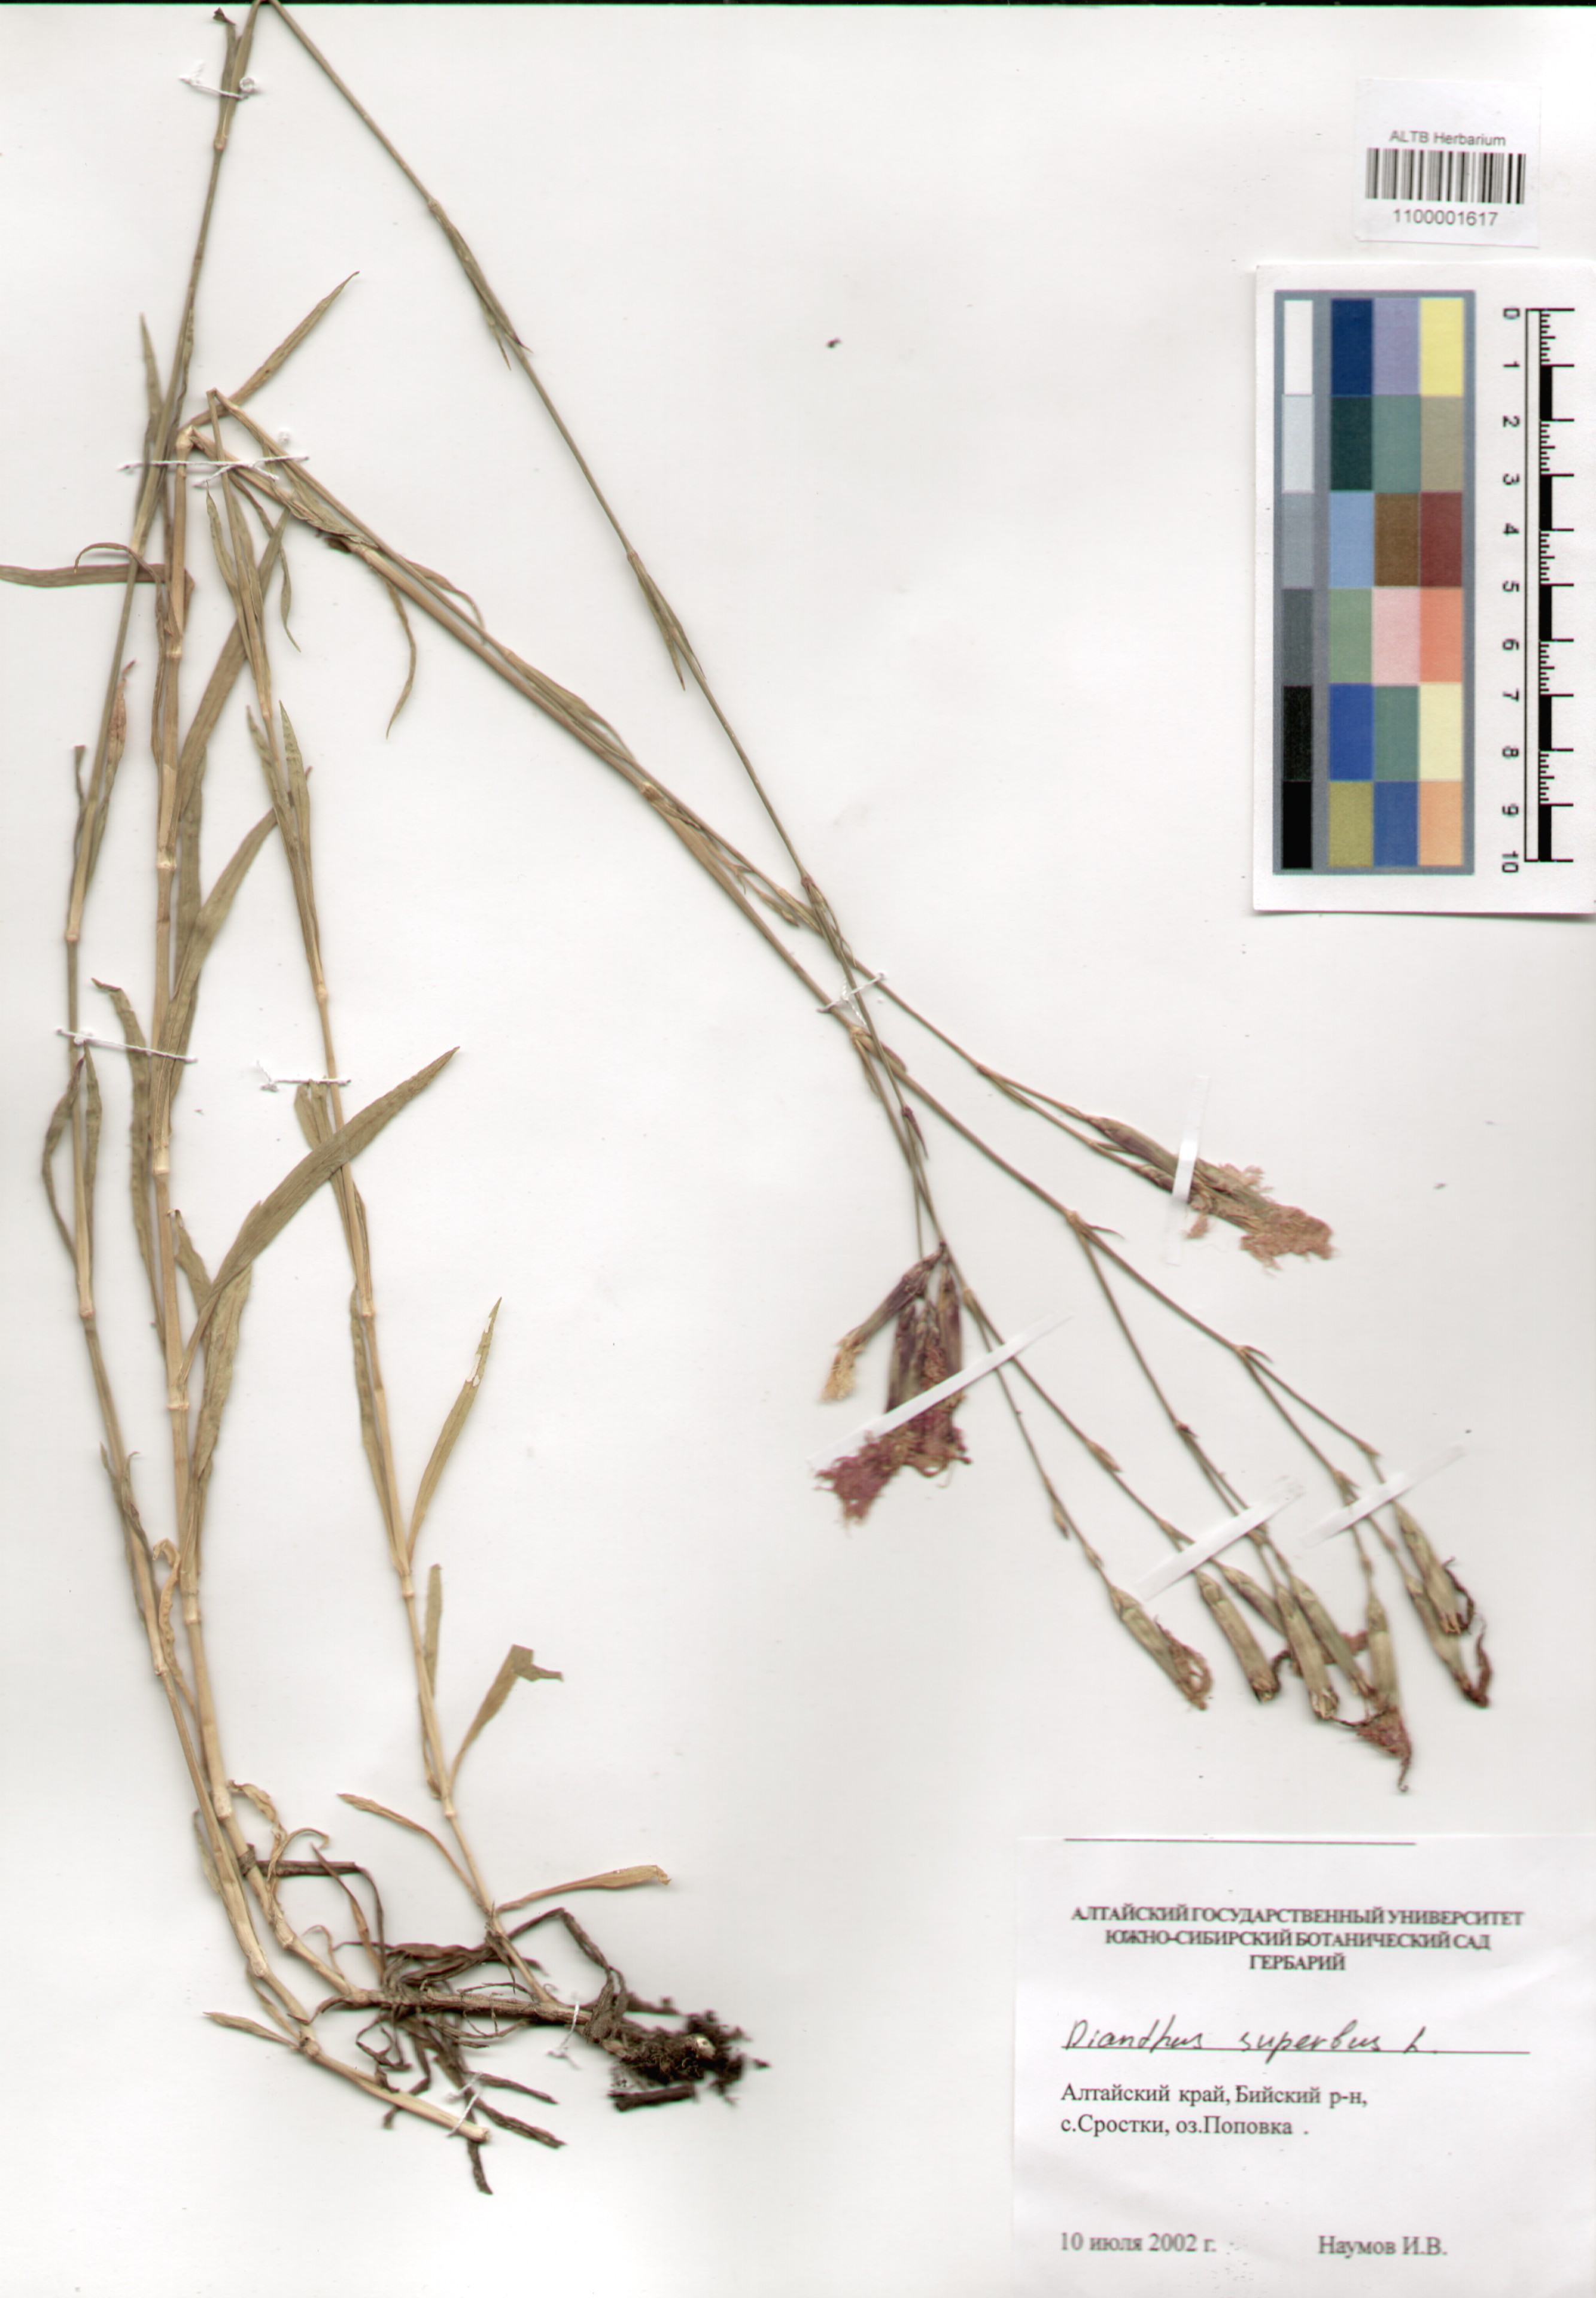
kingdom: Plantae
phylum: Tracheophyta
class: Magnoliopsida
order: Caryophyllales
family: Caryophyllaceae
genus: Dianthus
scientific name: Dianthus superbus
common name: Fringed pink
